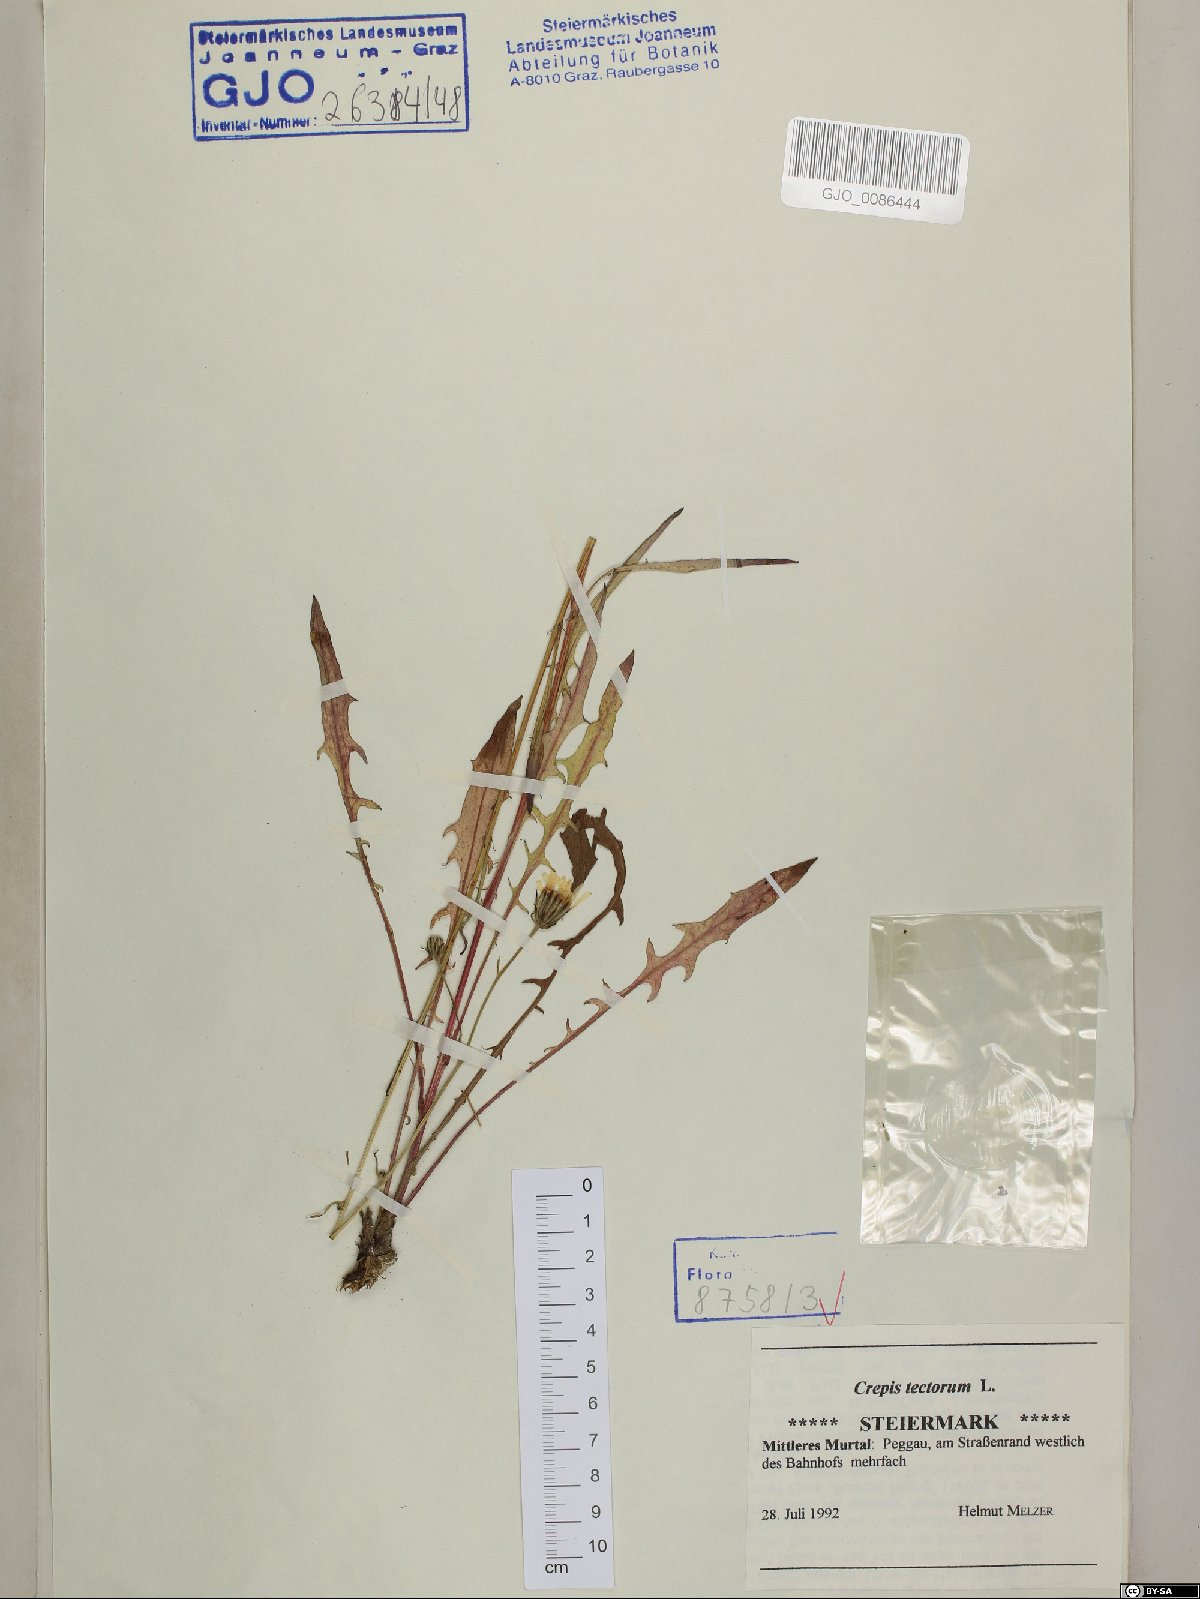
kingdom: Plantae
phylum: Tracheophyta
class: Magnoliopsida
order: Asterales
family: Asteraceae
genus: Crepis
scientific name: Crepis tectorum
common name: Narrow-leaved hawk's-beard
